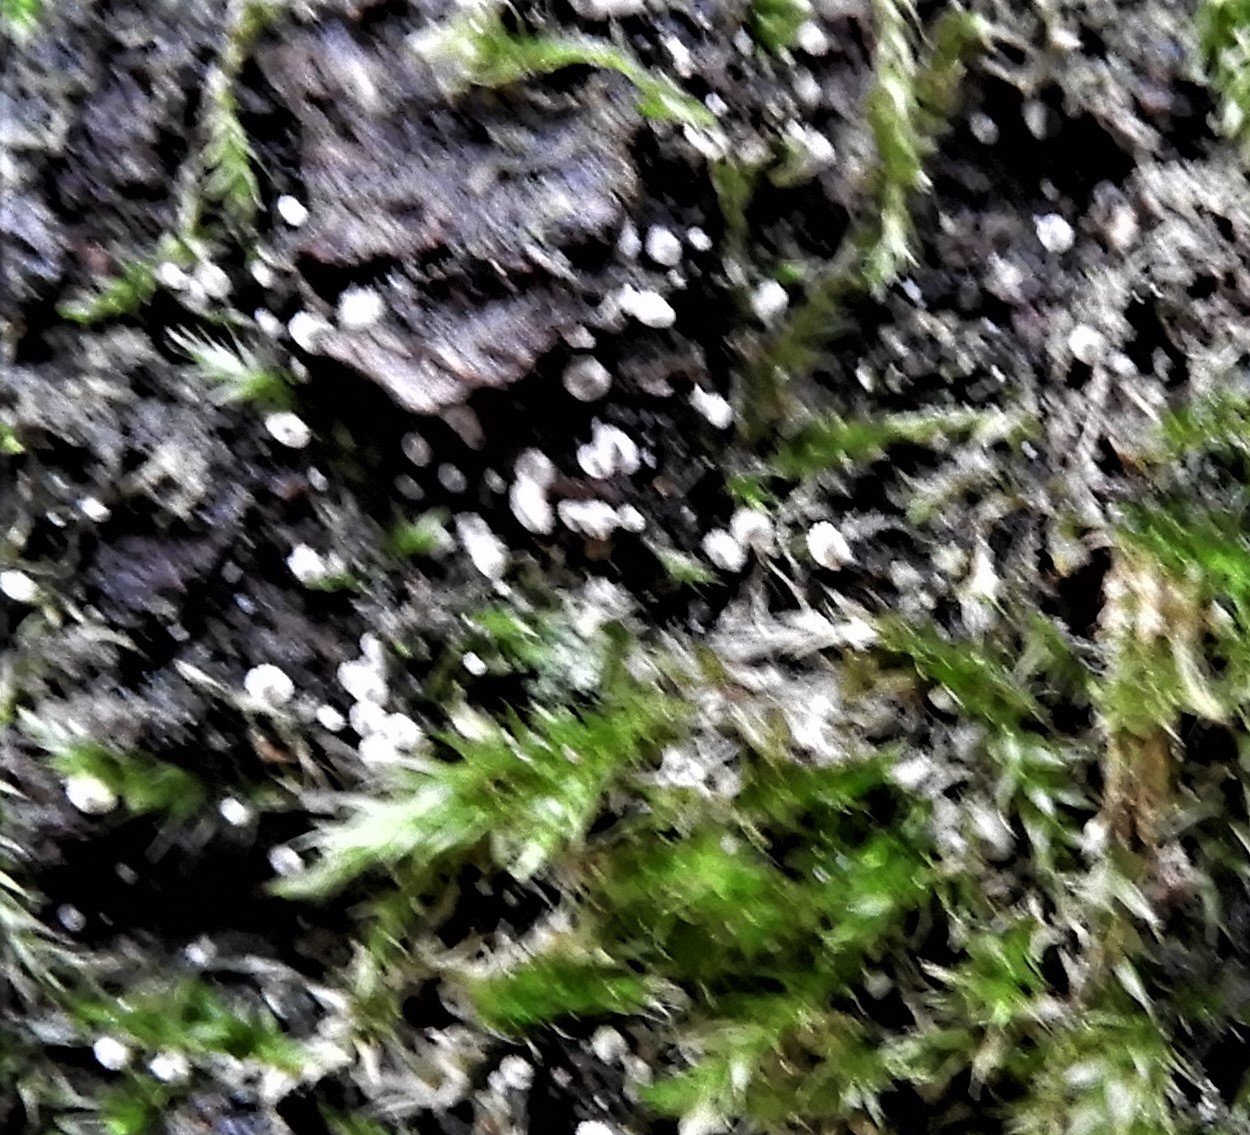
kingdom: Fungi
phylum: Basidiomycota
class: Agaricomycetes
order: Agaricales
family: Chromocyphellaceae
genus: Chromocyphella
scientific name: Chromocyphella muscicola
